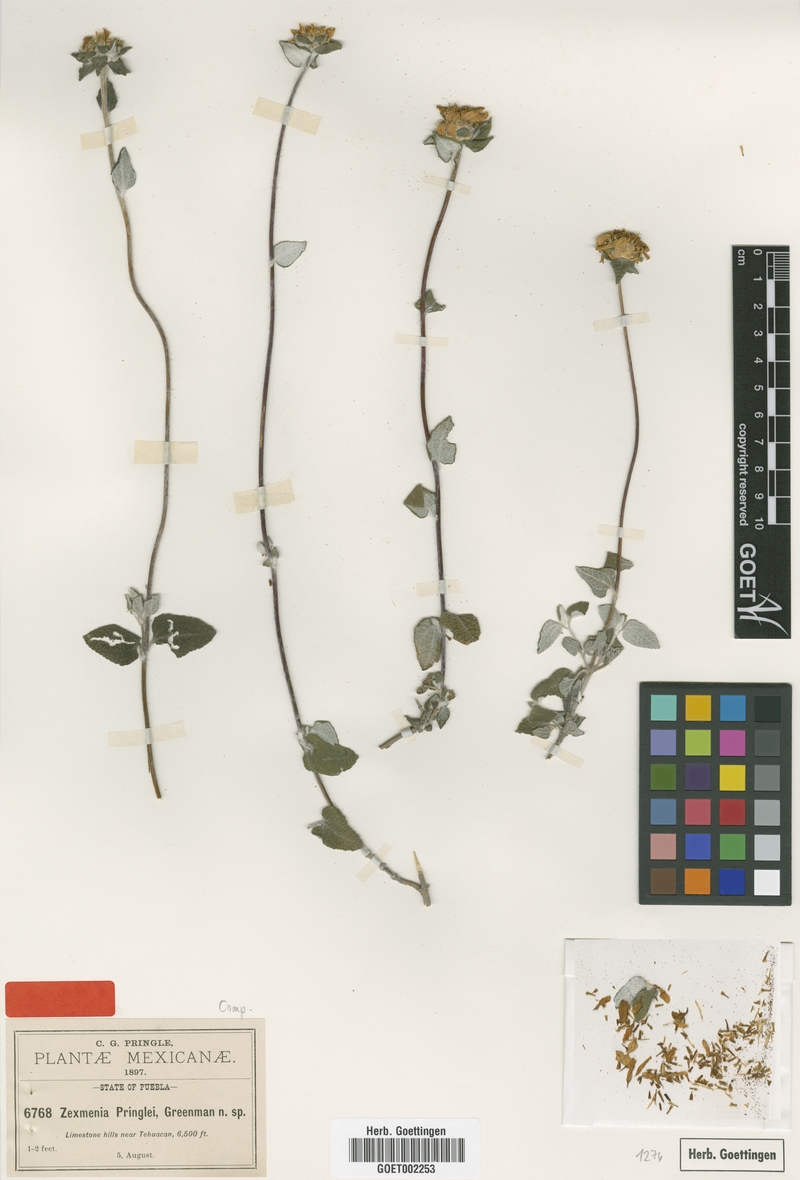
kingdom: Plantae
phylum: Tracheophyta
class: Magnoliopsida
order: Asterales
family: Asteraceae
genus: Jefea
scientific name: Jefea pringlei
